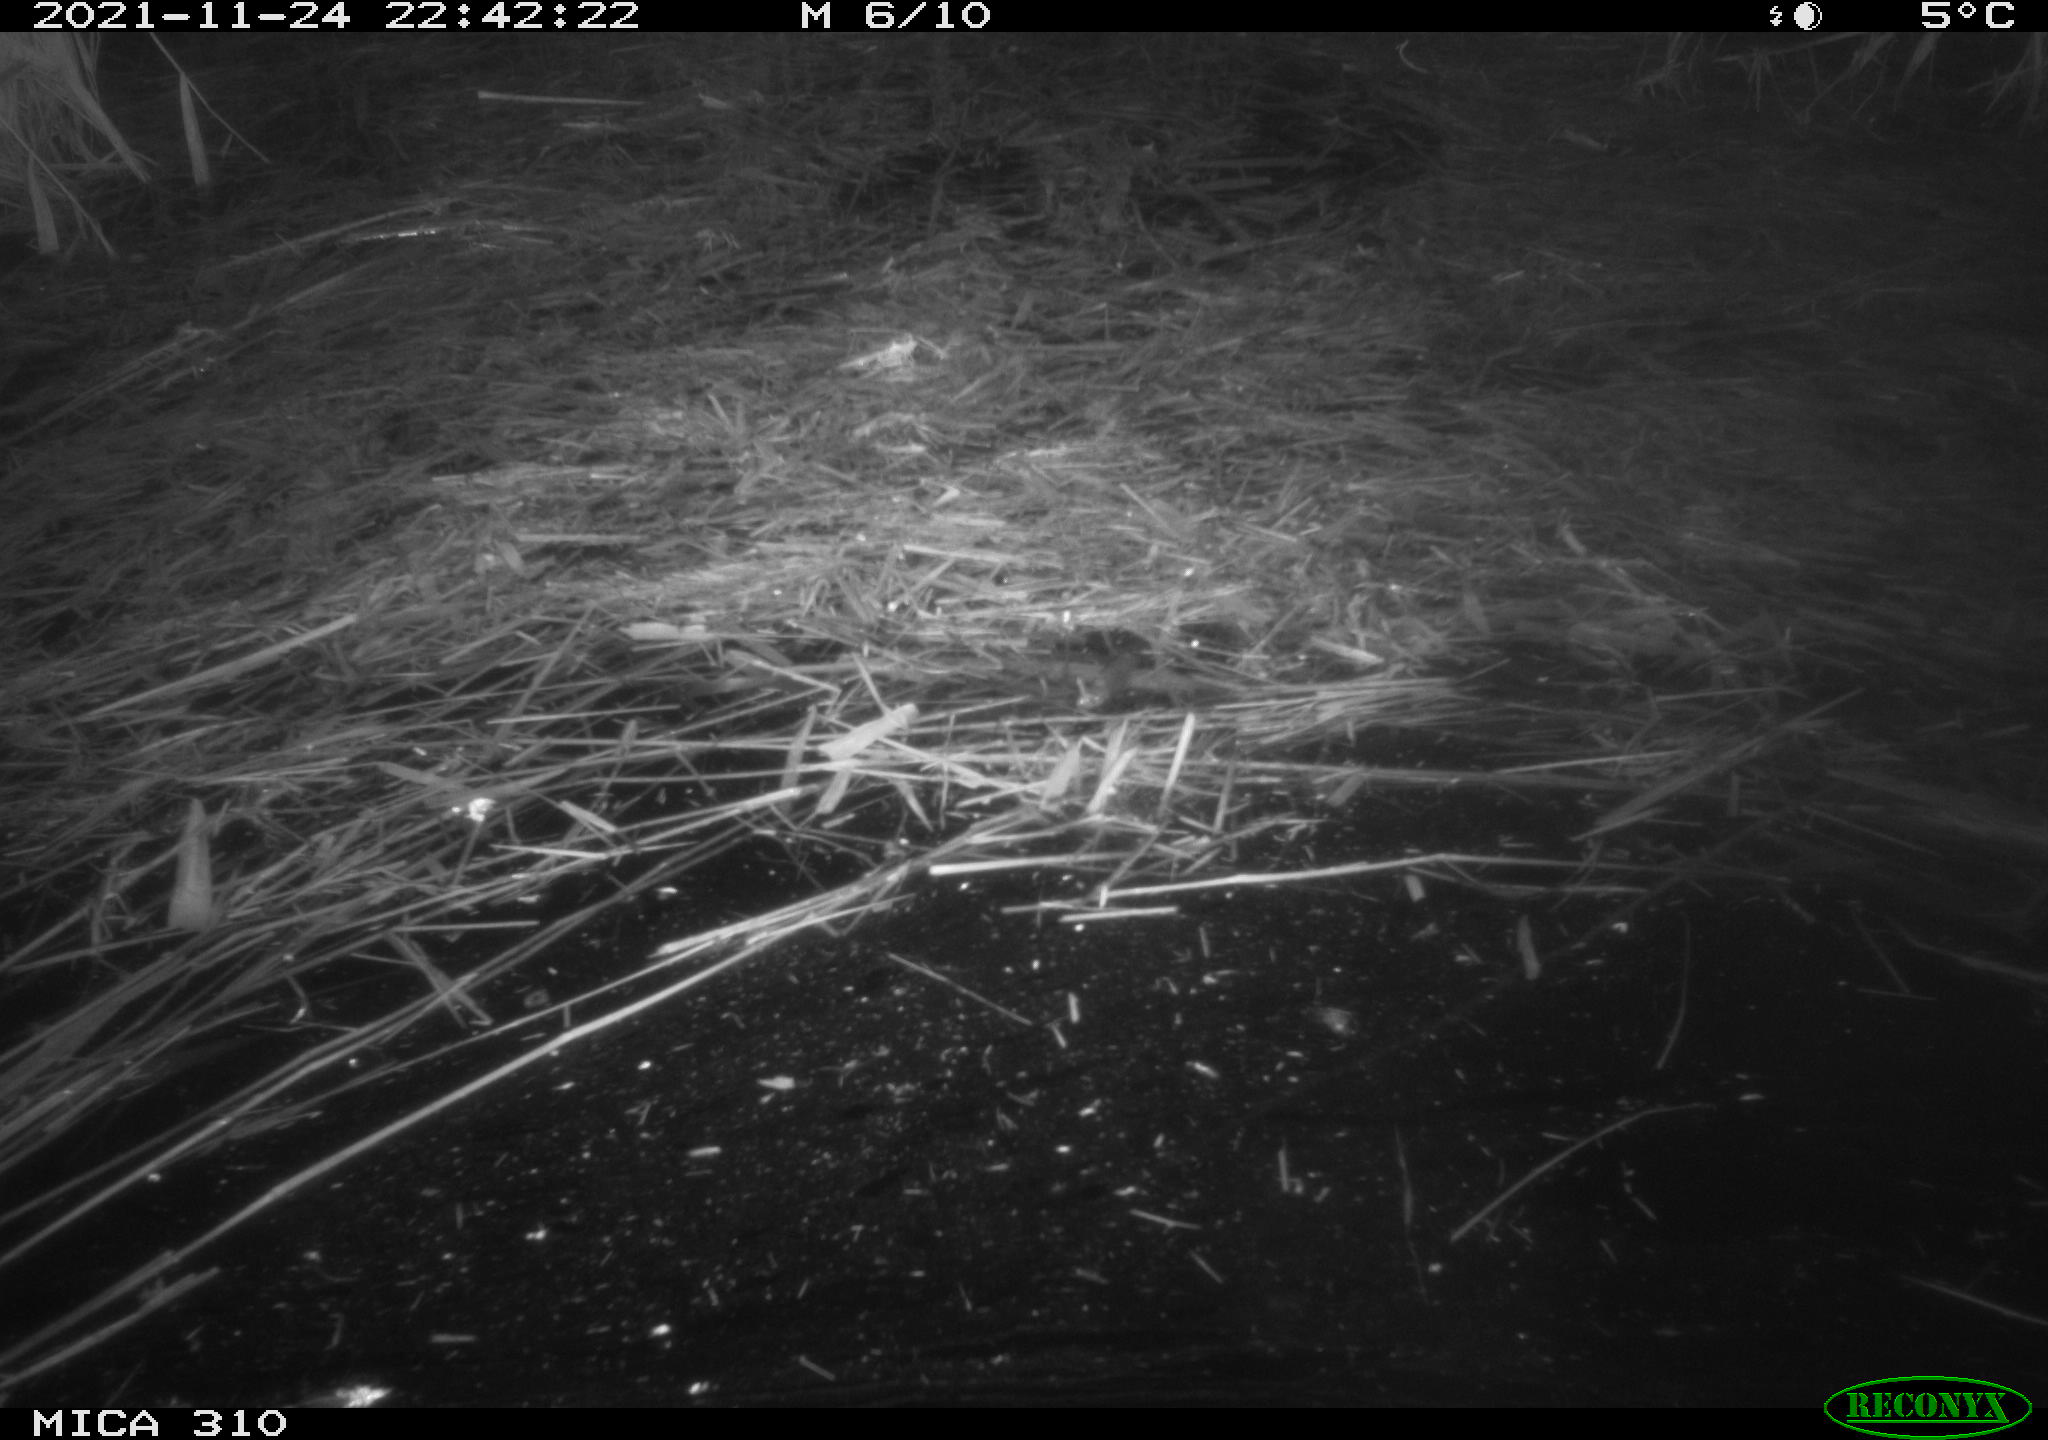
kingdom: Animalia
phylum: Chordata
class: Mammalia
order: Rodentia
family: Muridae
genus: Rattus
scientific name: Rattus norvegicus
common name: Brown rat
